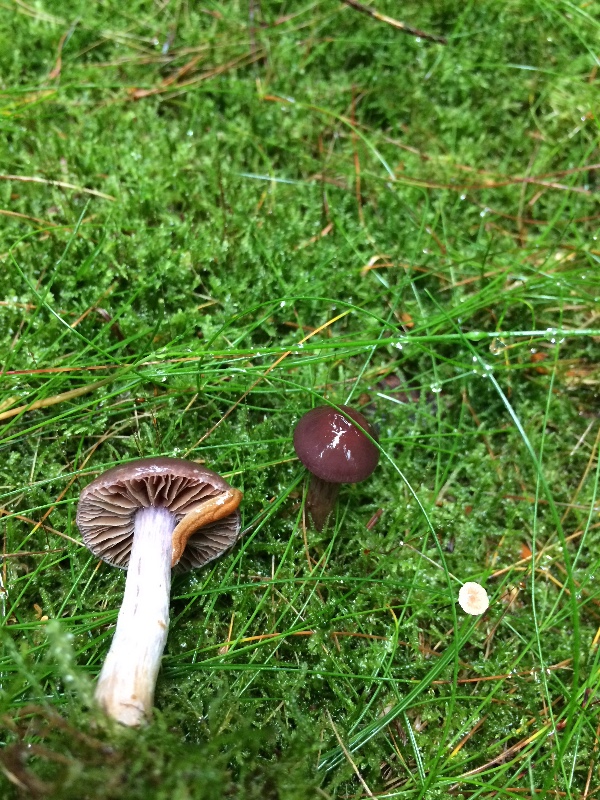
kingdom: Fungi
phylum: Basidiomycota
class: Agaricomycetes
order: Agaricales
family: Cortinariaceae
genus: Cortinarius
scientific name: Cortinarius kauffmanianus
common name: plantage-slørhat
